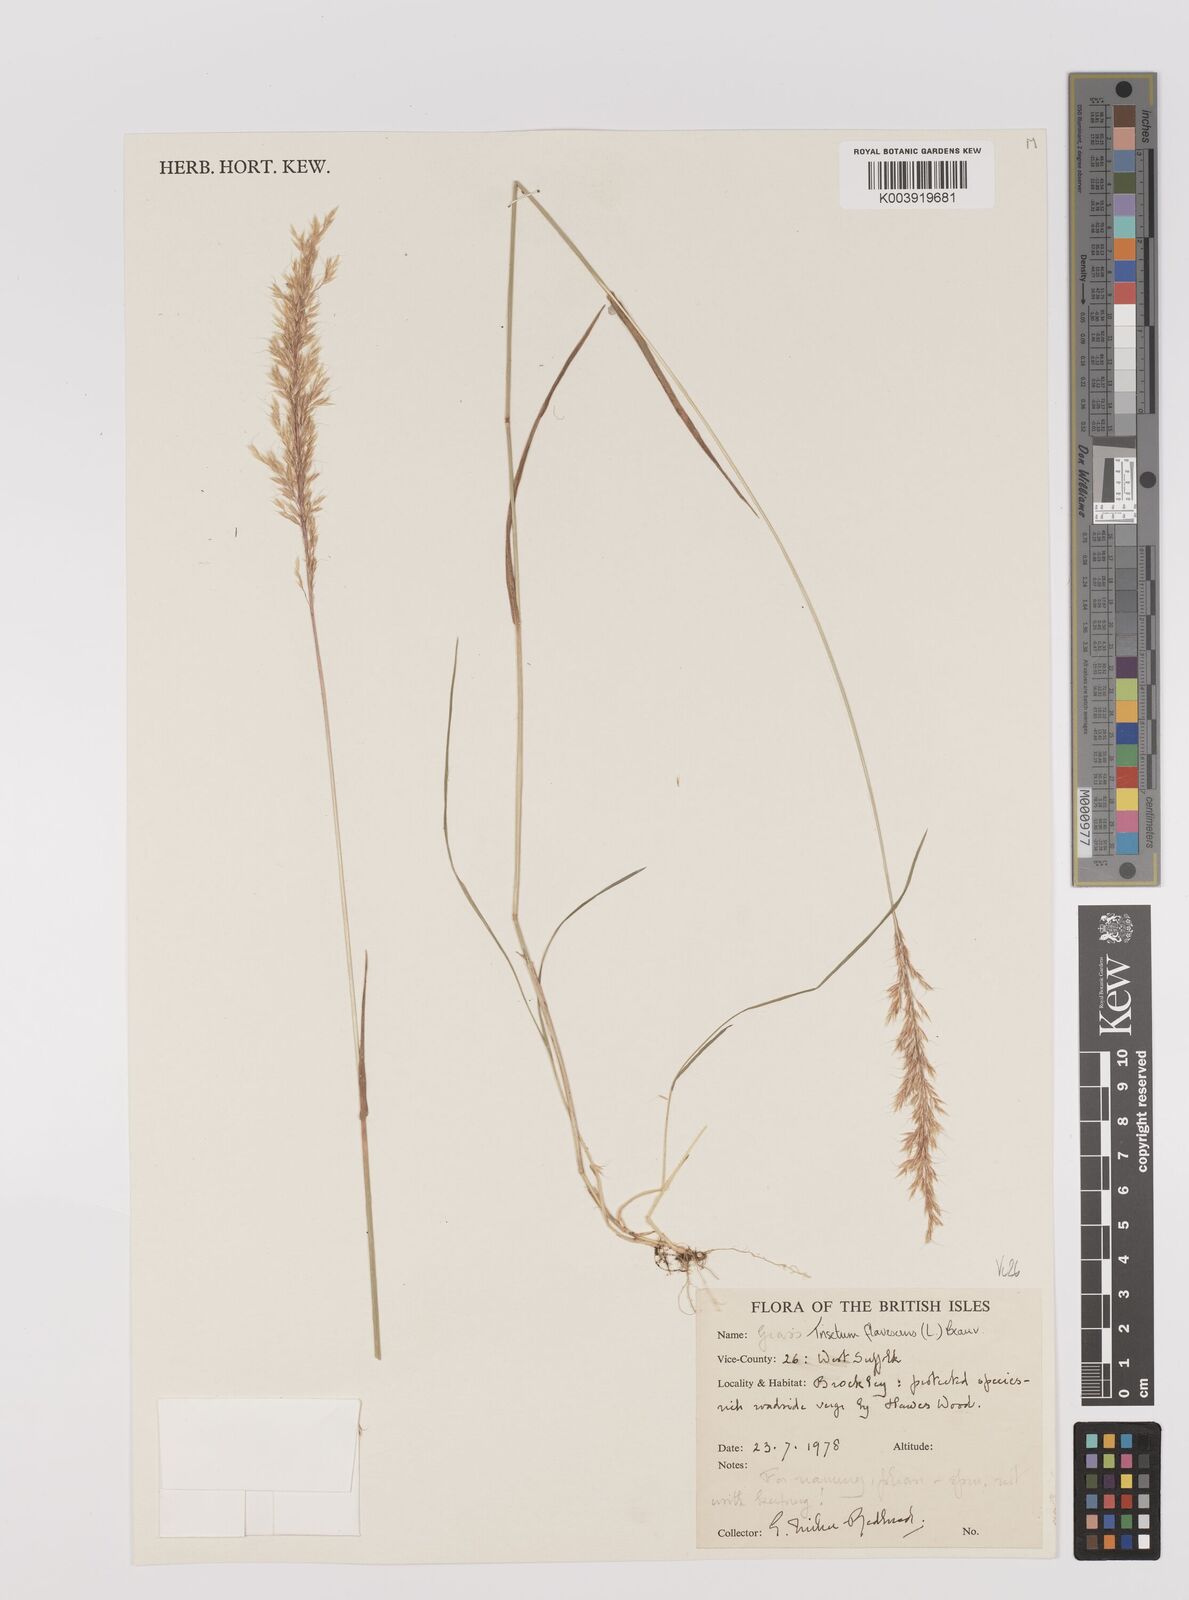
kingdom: Plantae
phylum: Tracheophyta
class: Liliopsida
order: Poales
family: Poaceae
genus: Trisetum
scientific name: Trisetum flavescens
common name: Yellow oat-grass
